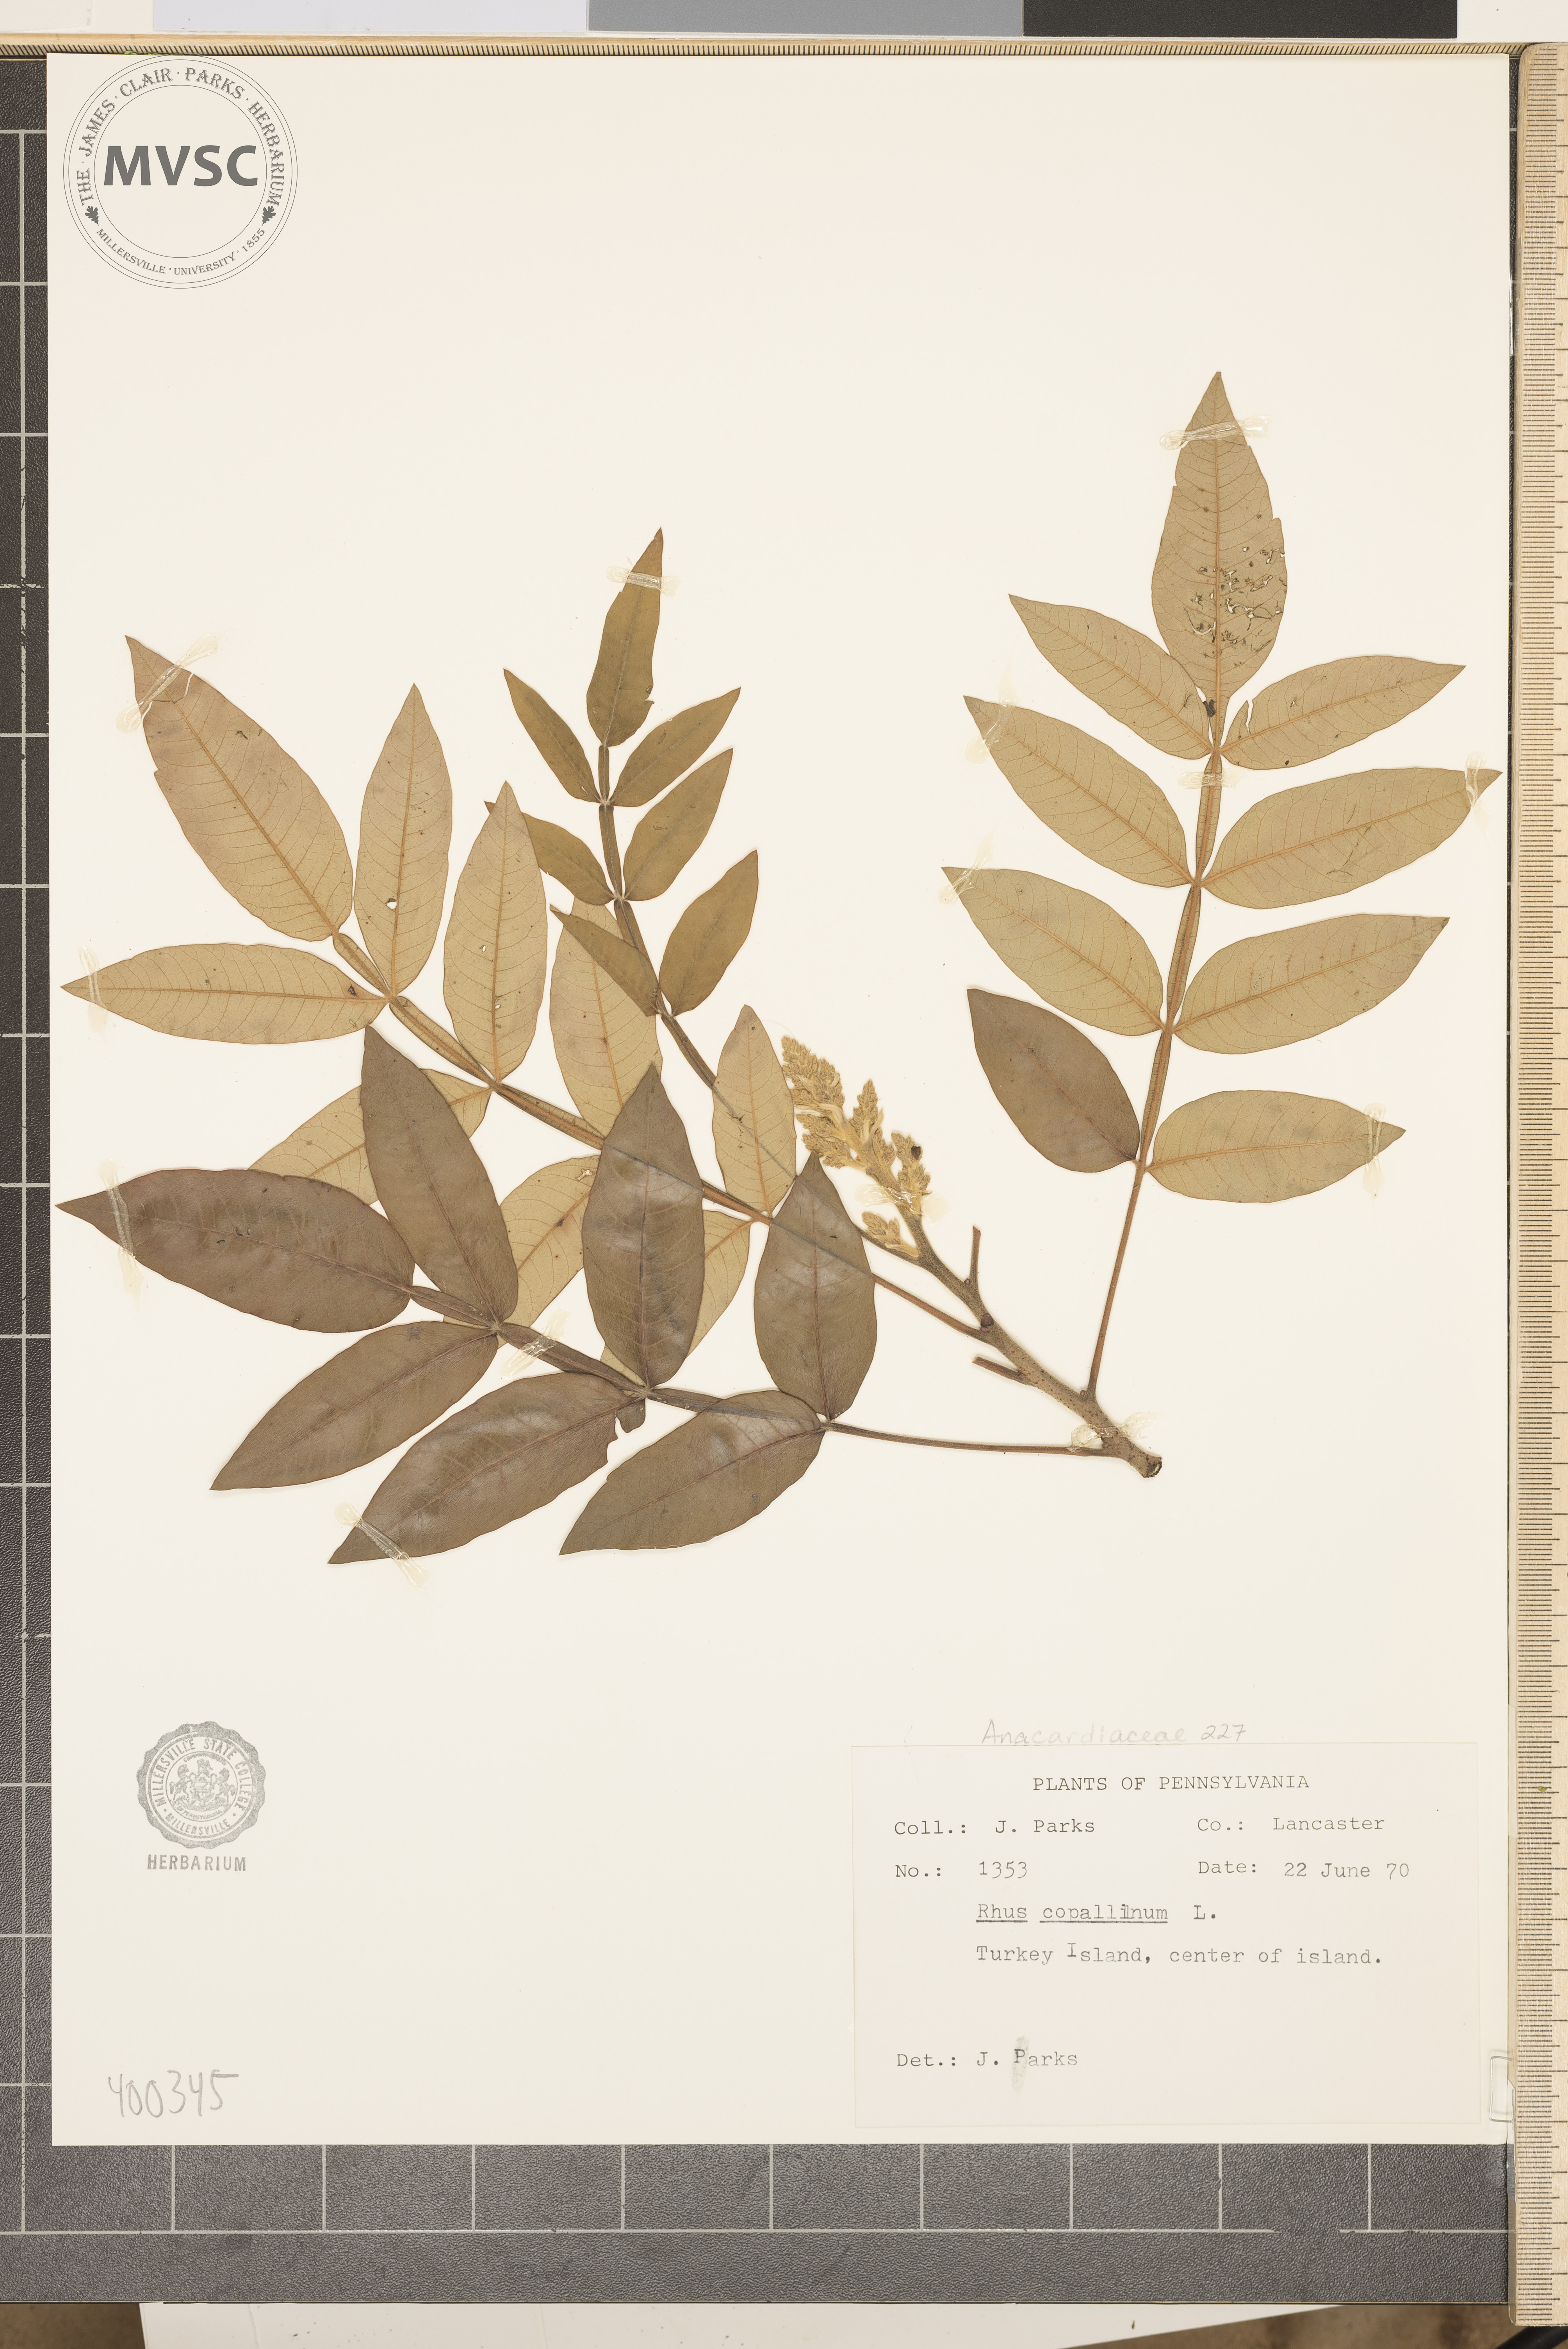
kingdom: Plantae
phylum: Tracheophyta
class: Magnoliopsida
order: Sapindales
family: Anacardiaceae
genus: Rhus
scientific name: Rhus copallina
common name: sumac
